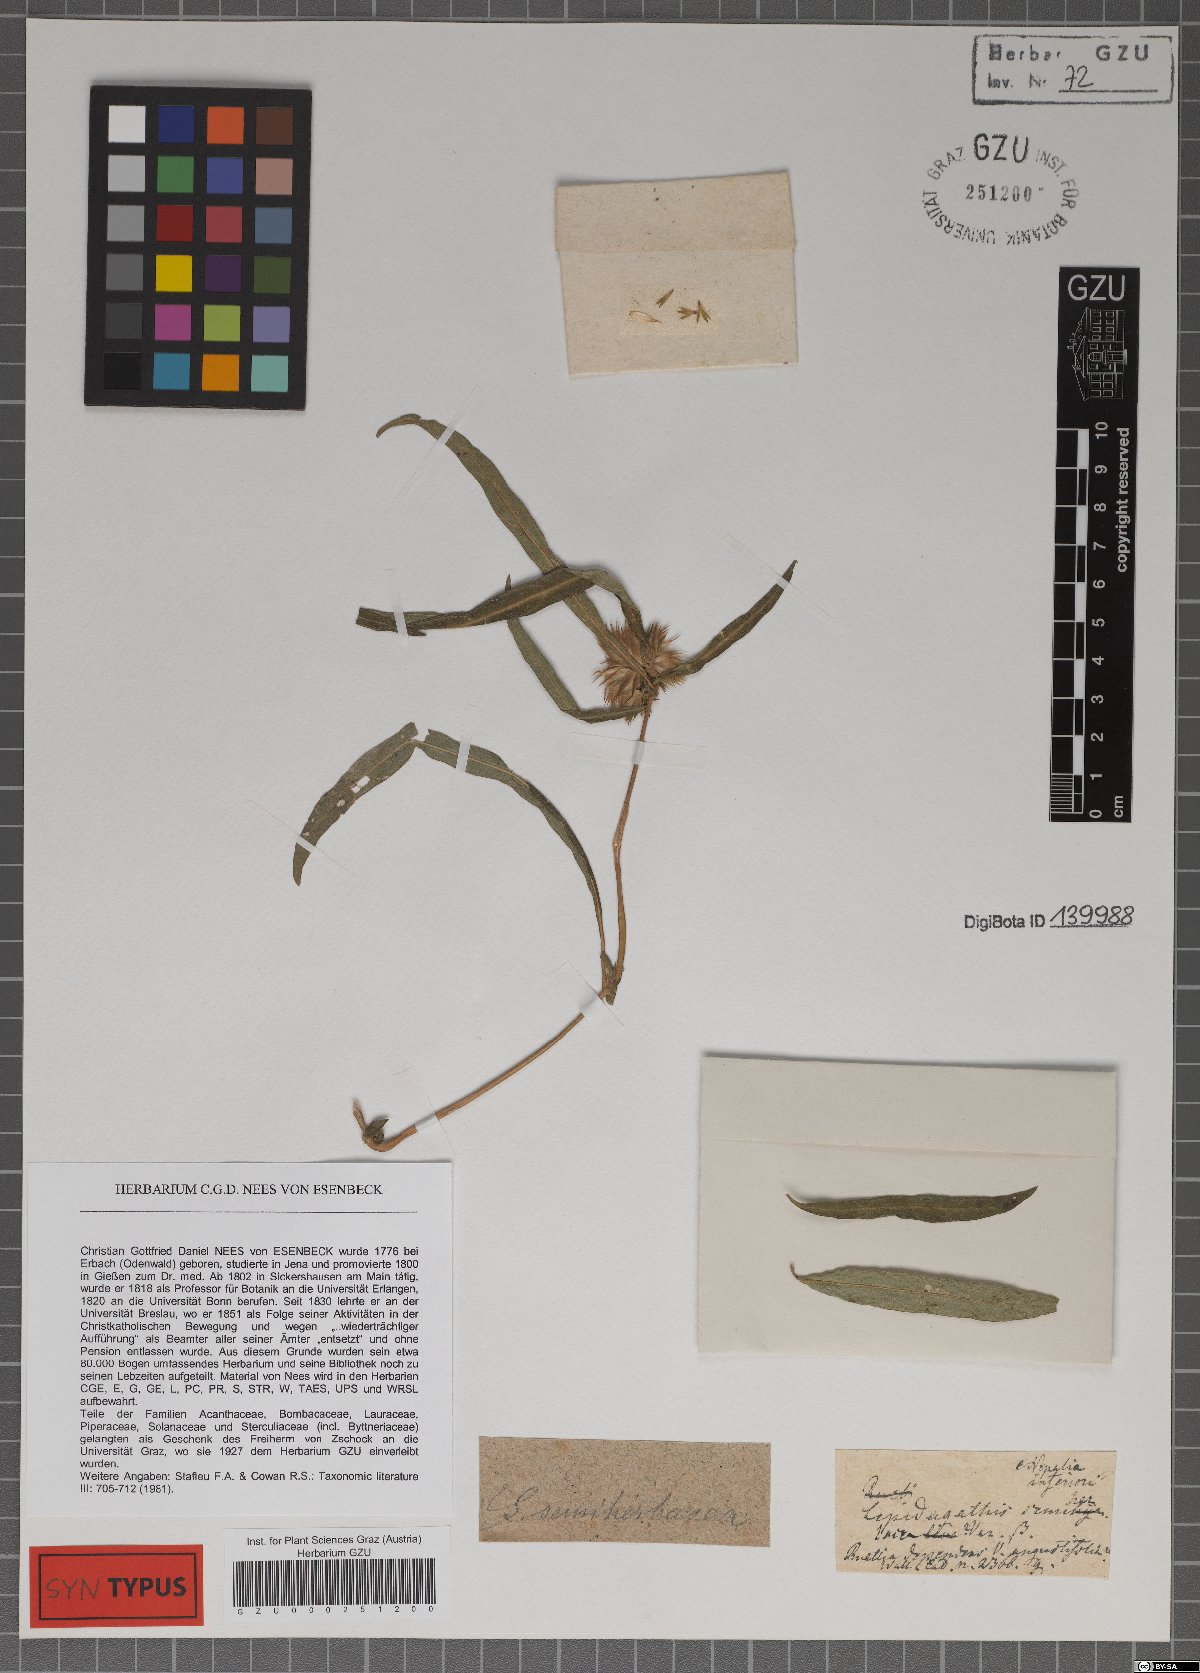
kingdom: Plantae
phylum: Tracheophyta
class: Magnoliopsida
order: Lamiales
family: Acanthaceae
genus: Lepidagathis
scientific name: Lepidagathis incurva
